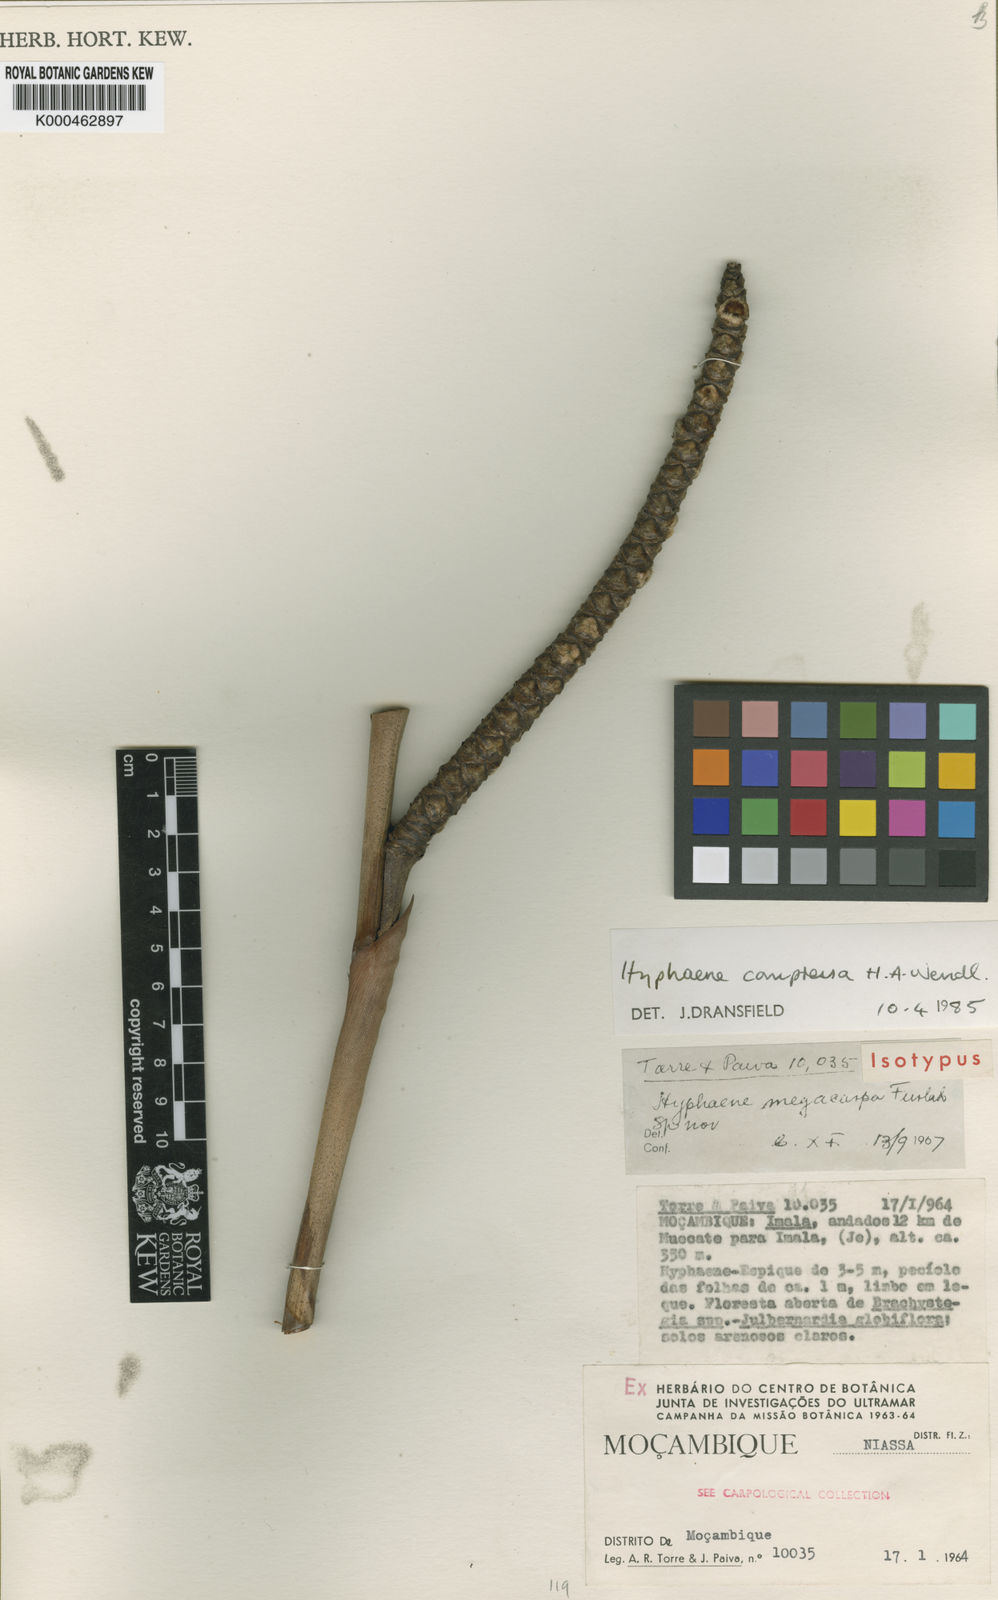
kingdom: Plantae
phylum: Tracheophyta
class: Liliopsida
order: Arecales
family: Arecaceae
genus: Hyphaene
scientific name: Hyphaene compressa
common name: Doum palm
